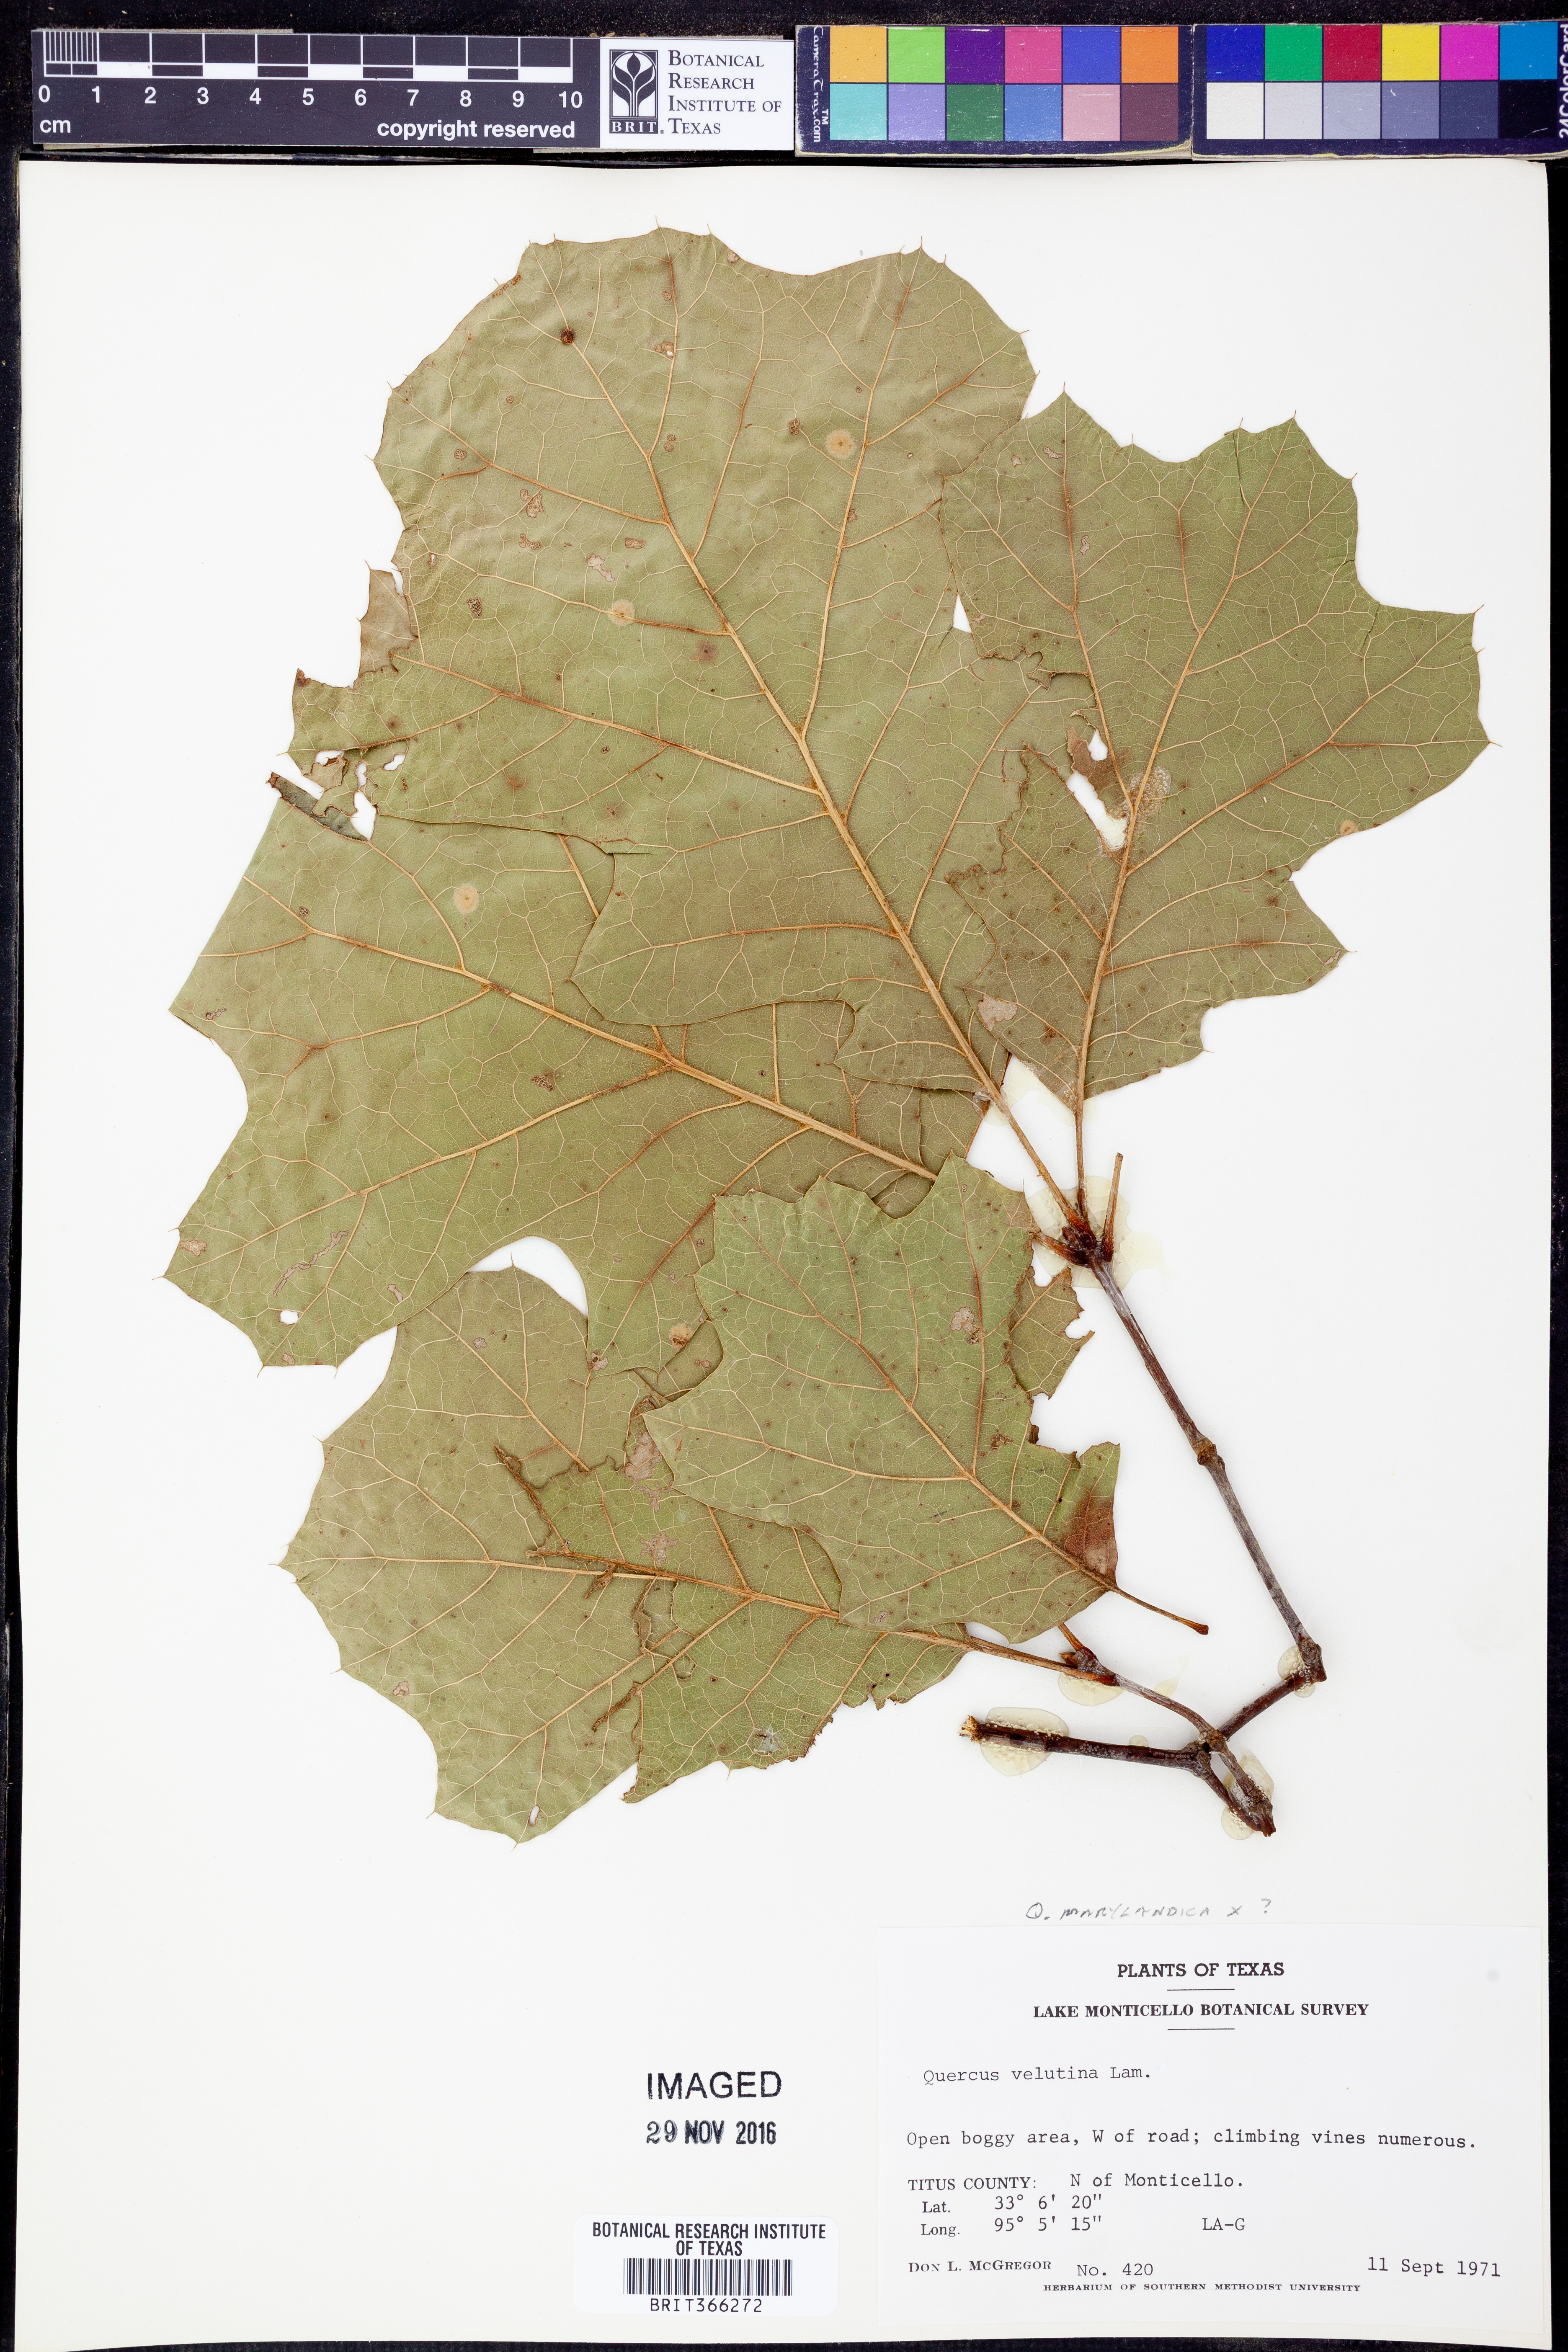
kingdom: Plantae
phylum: Tracheophyta
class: Magnoliopsida
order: Fagales
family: Fagaceae
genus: Quercus
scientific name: Quercus nigra
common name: Water oak
